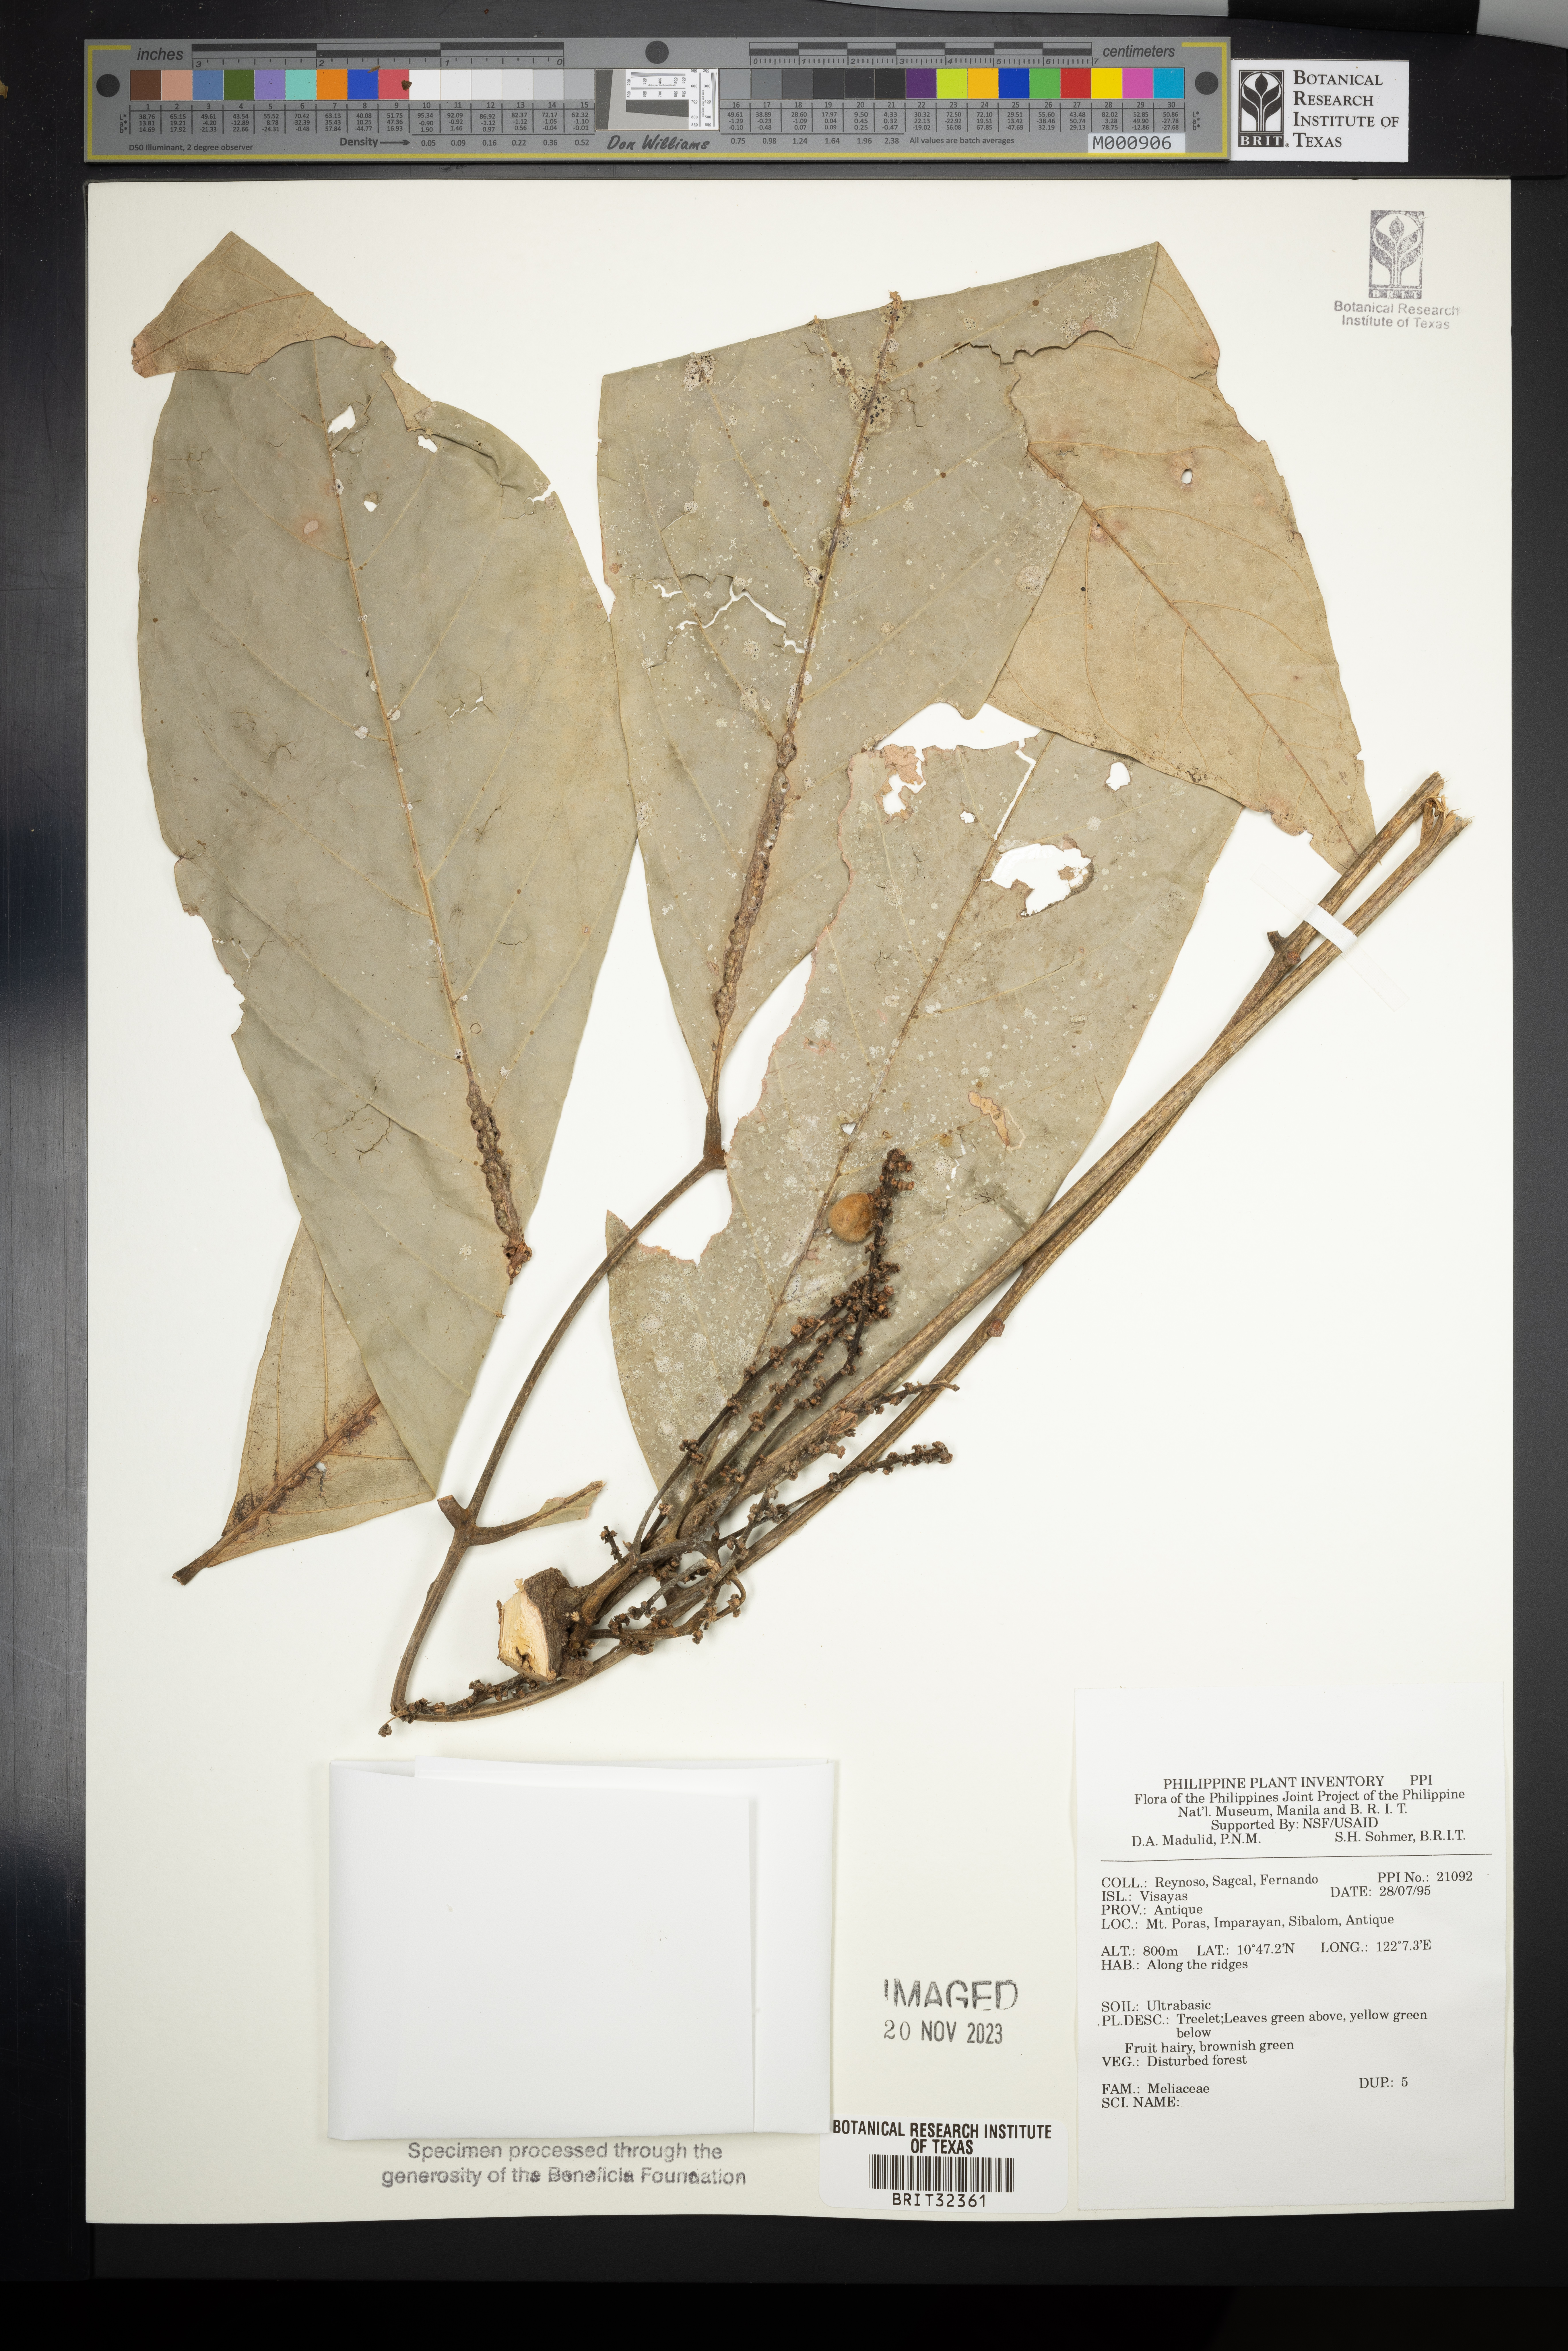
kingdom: Plantae
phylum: Tracheophyta
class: Magnoliopsida
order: Sapindales
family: Meliaceae
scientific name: Meliaceae
